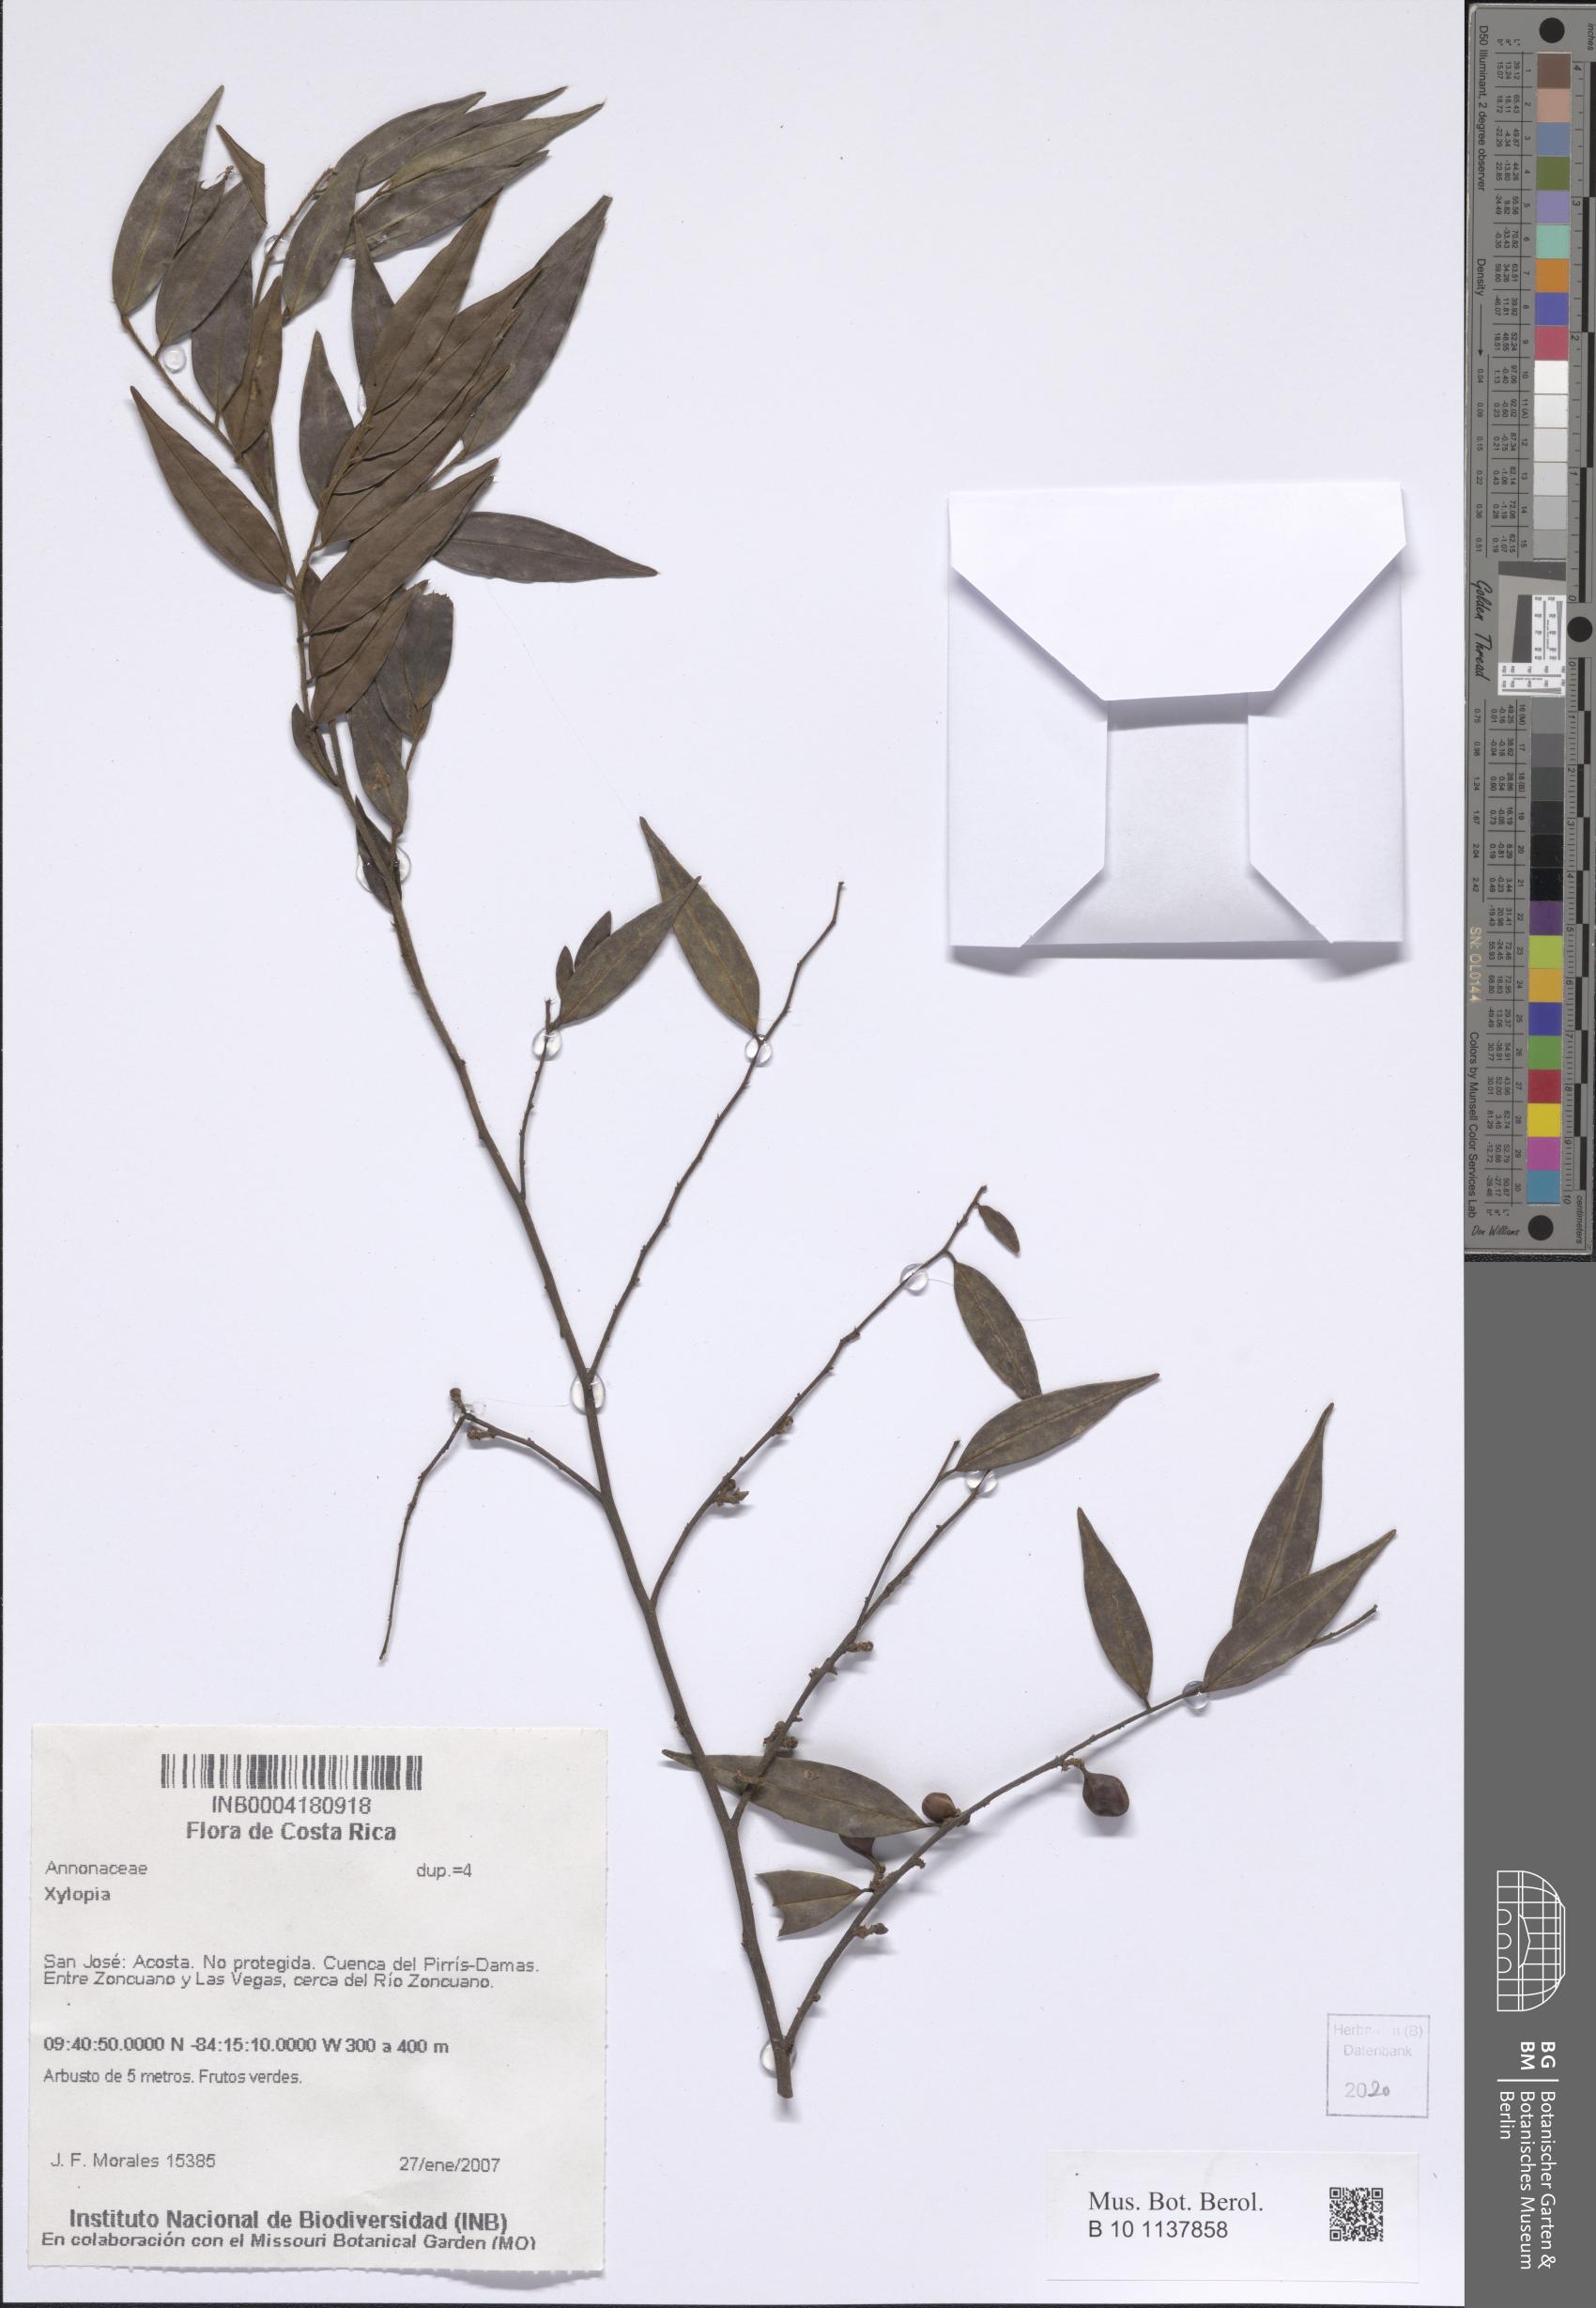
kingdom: Plantae
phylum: Tracheophyta
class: Magnoliopsida
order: Magnoliales
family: Annonaceae
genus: Xylopia
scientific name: Xylopia
